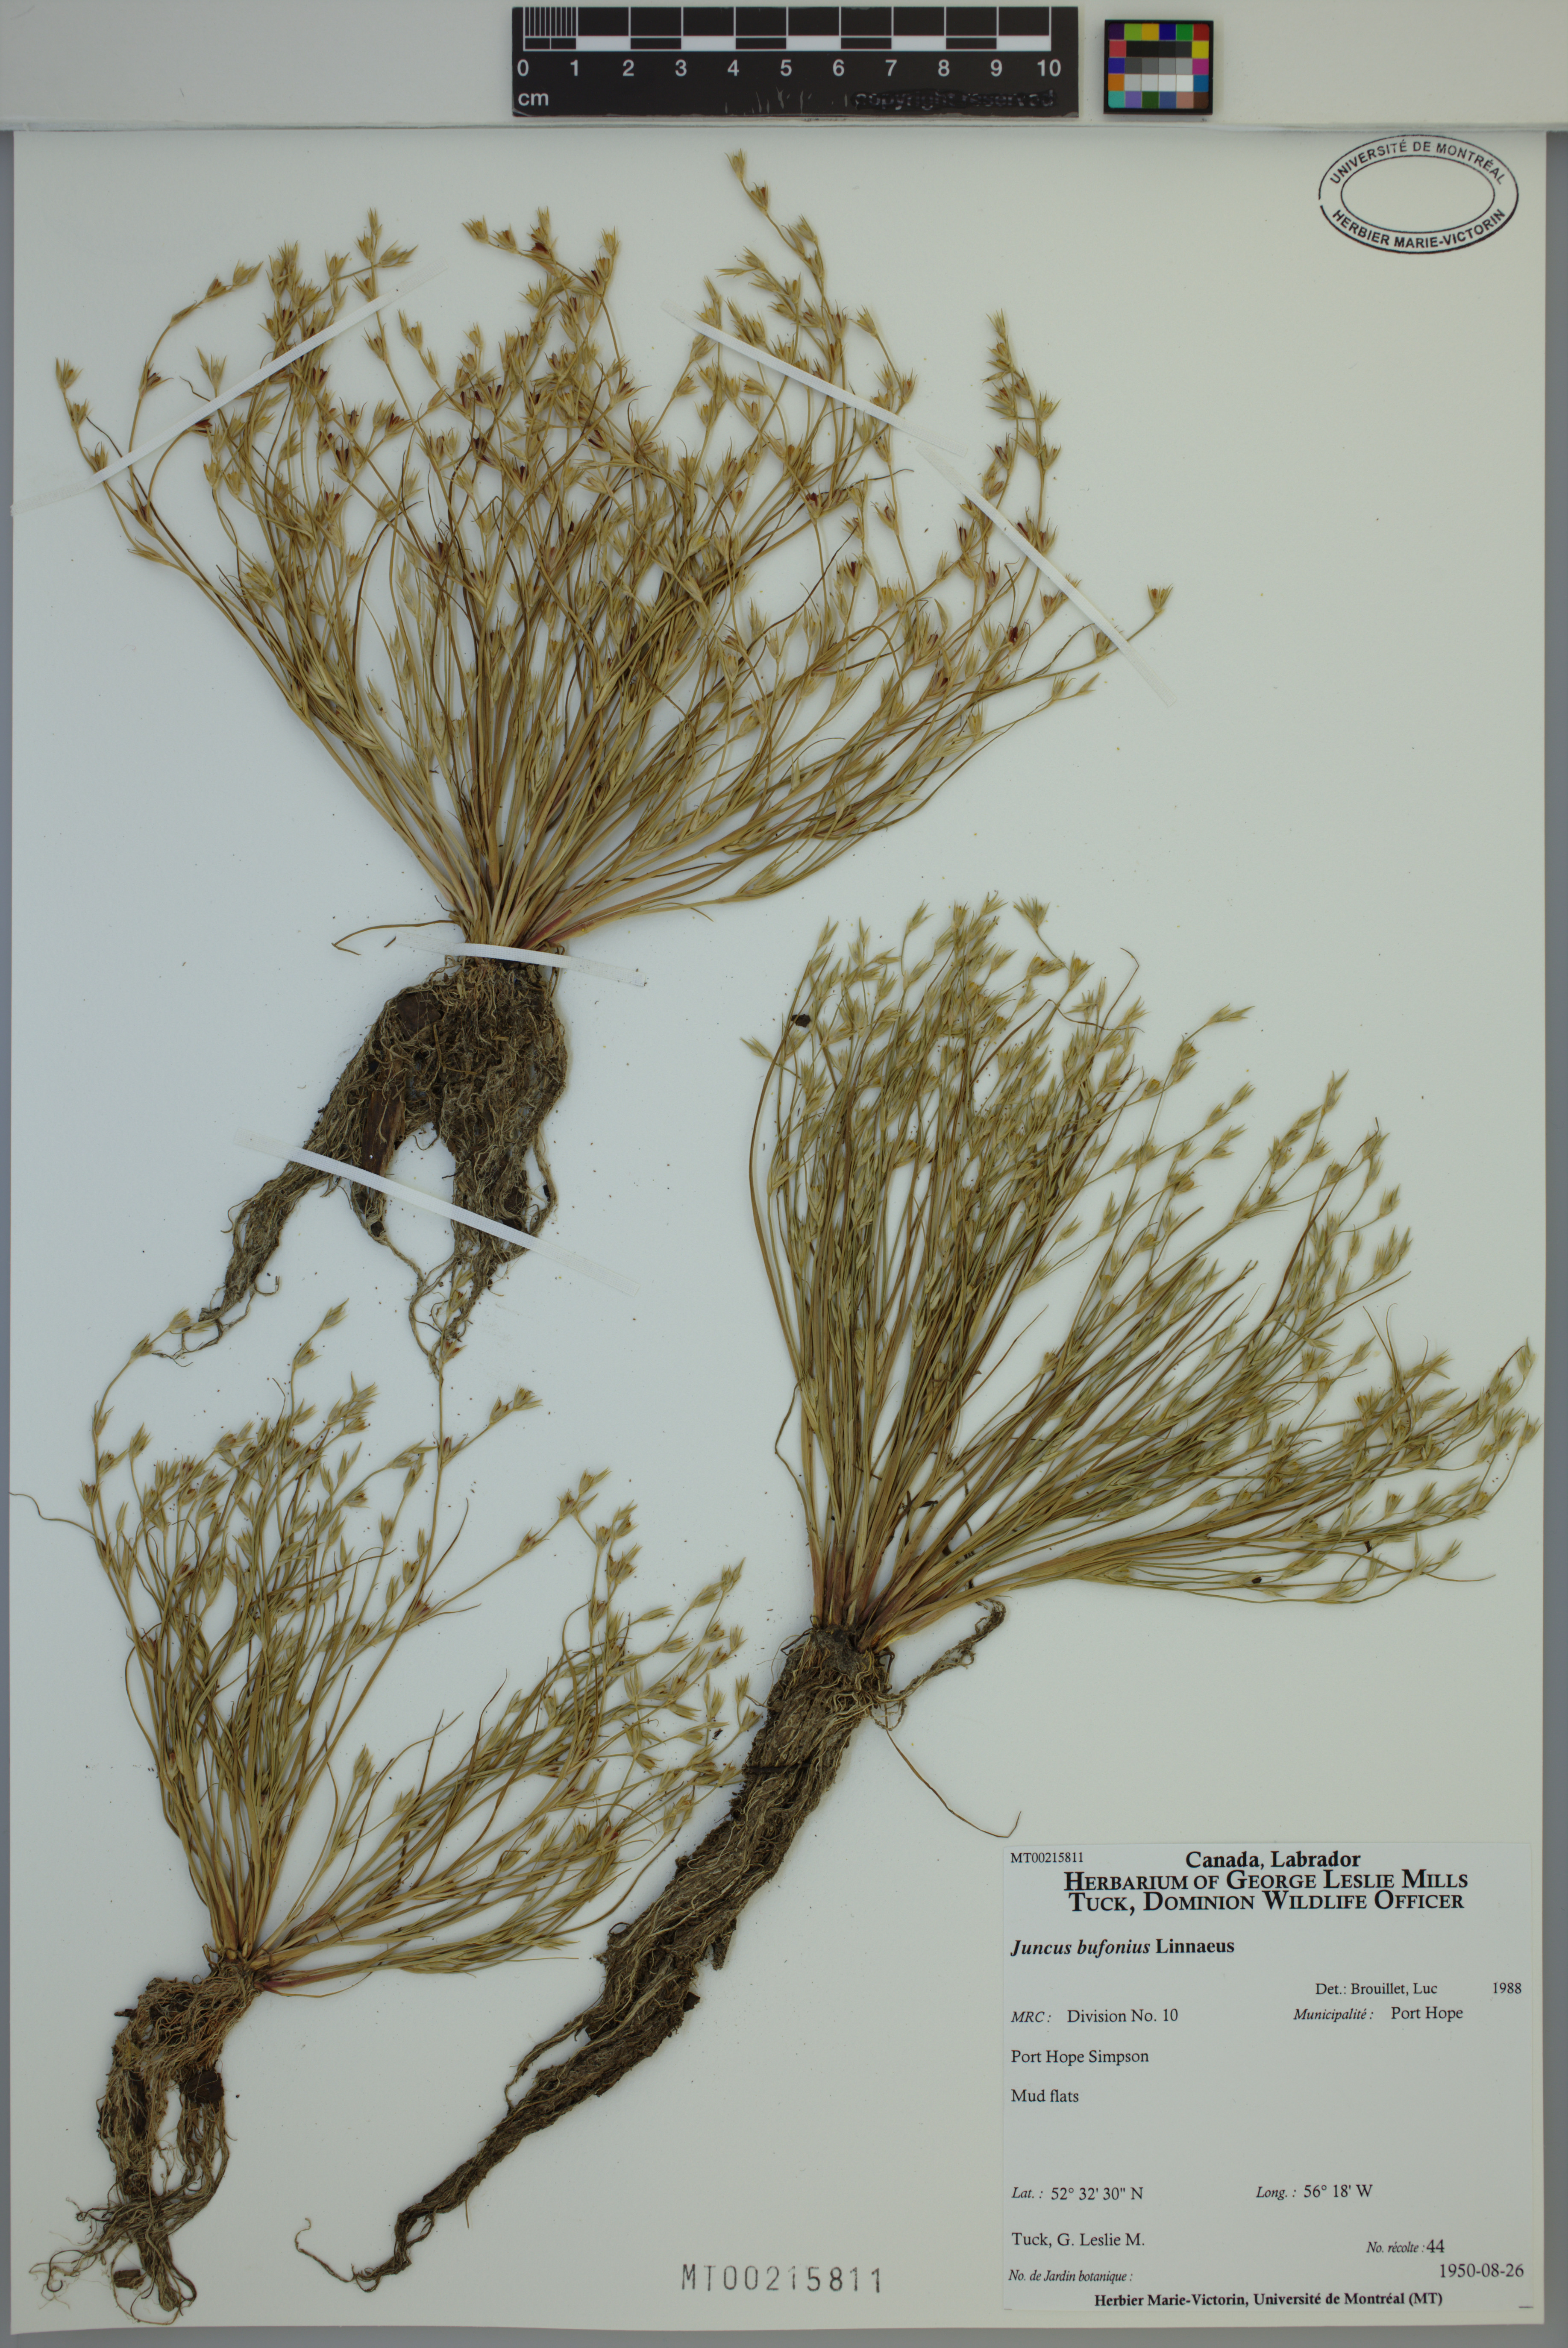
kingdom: Plantae
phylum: Tracheophyta
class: Liliopsida
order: Poales
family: Juncaceae
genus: Juncus
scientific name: Juncus bufonius
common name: Toad rush
